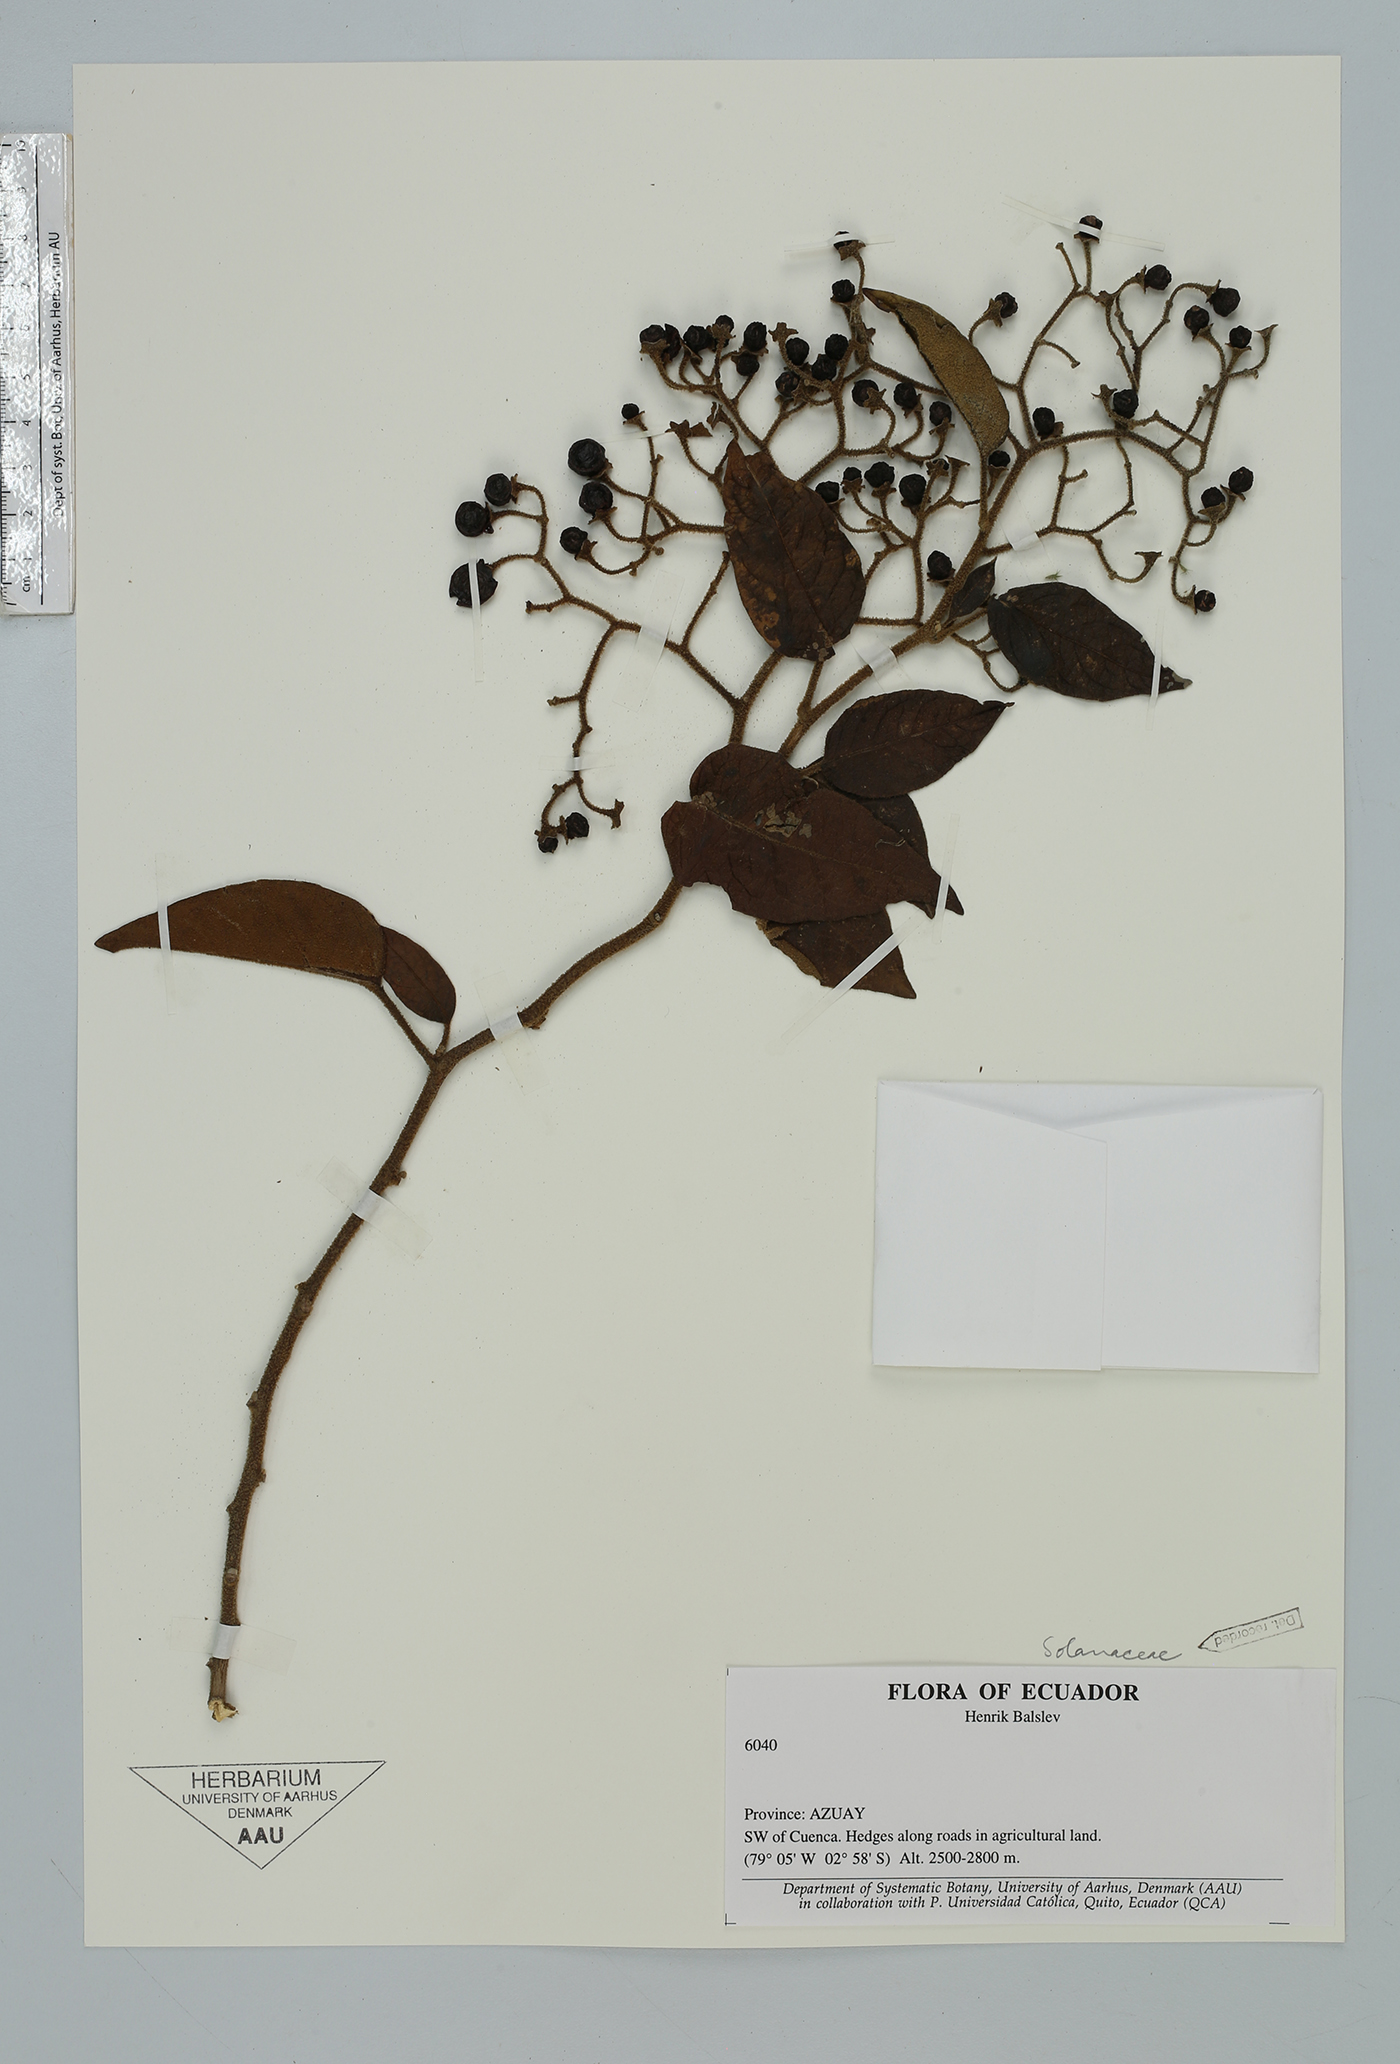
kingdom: Plantae
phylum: Tracheophyta
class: Magnoliopsida
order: Solanales
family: Solanaceae
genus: Solanum
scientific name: Solanum
